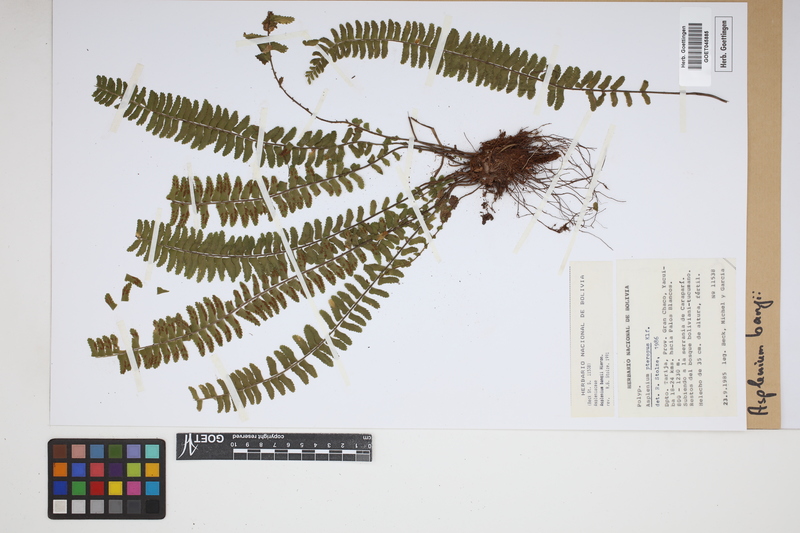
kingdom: Plantae
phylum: Tracheophyta
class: Polypodiopsida
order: Polypodiales
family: Aspleniaceae
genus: Asplenium
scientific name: Asplenium bangii
